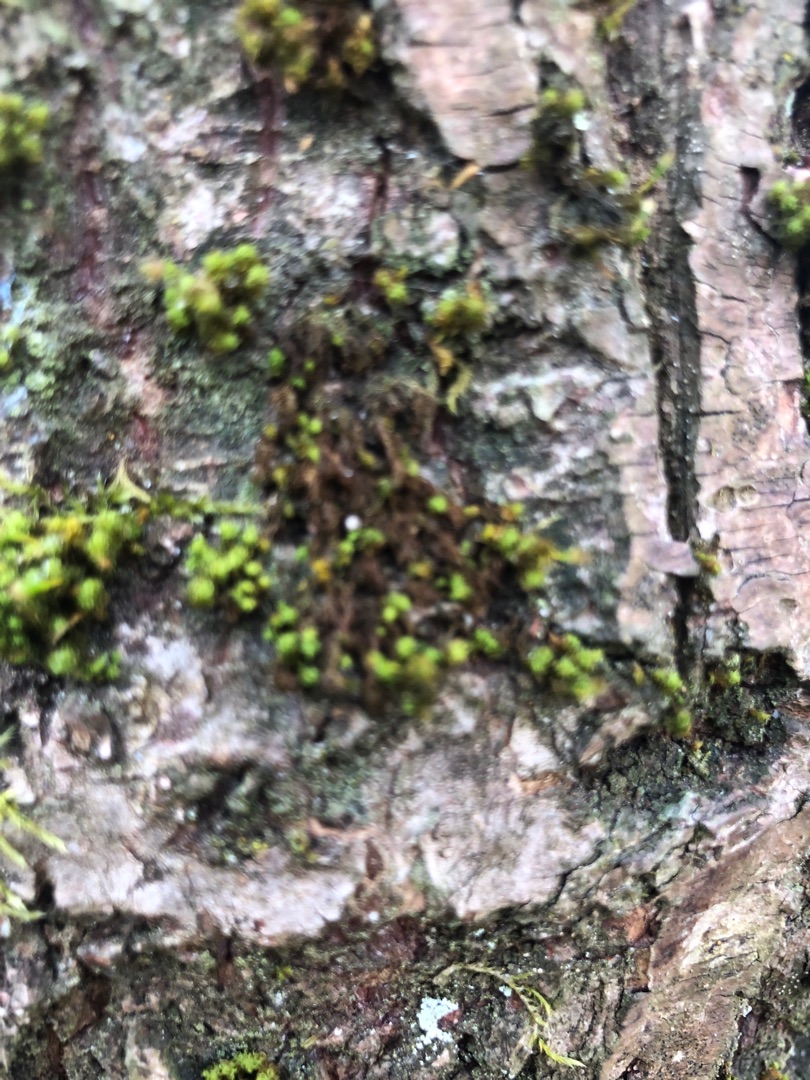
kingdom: Plantae
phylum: Bryophyta
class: Bryopsida
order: Orthotrichales
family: Orthotrichaceae
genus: Ulota
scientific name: Ulota
